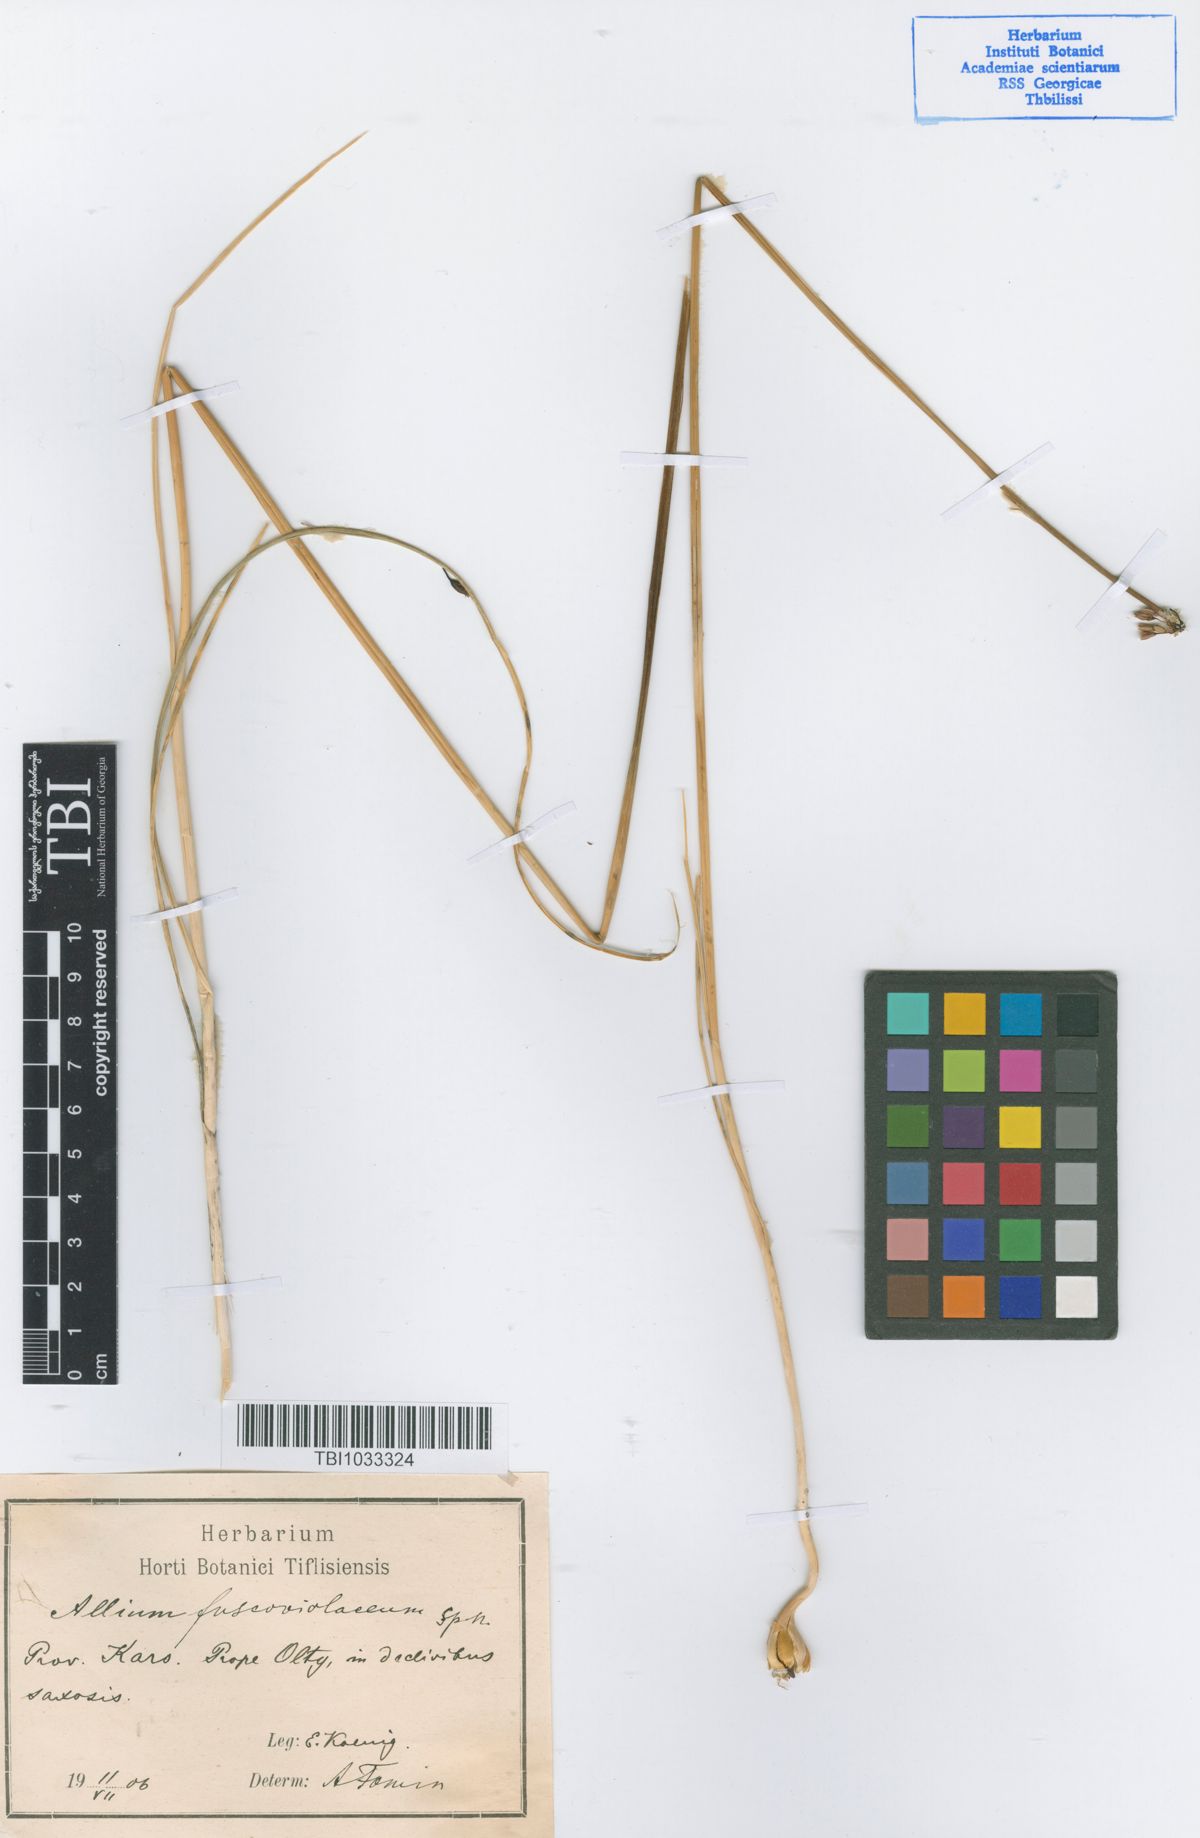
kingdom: Plantae
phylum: Tracheophyta
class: Liliopsida
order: Asparagales
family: Amaryllidaceae
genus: Allium
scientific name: Allium fuscoviolaceum
